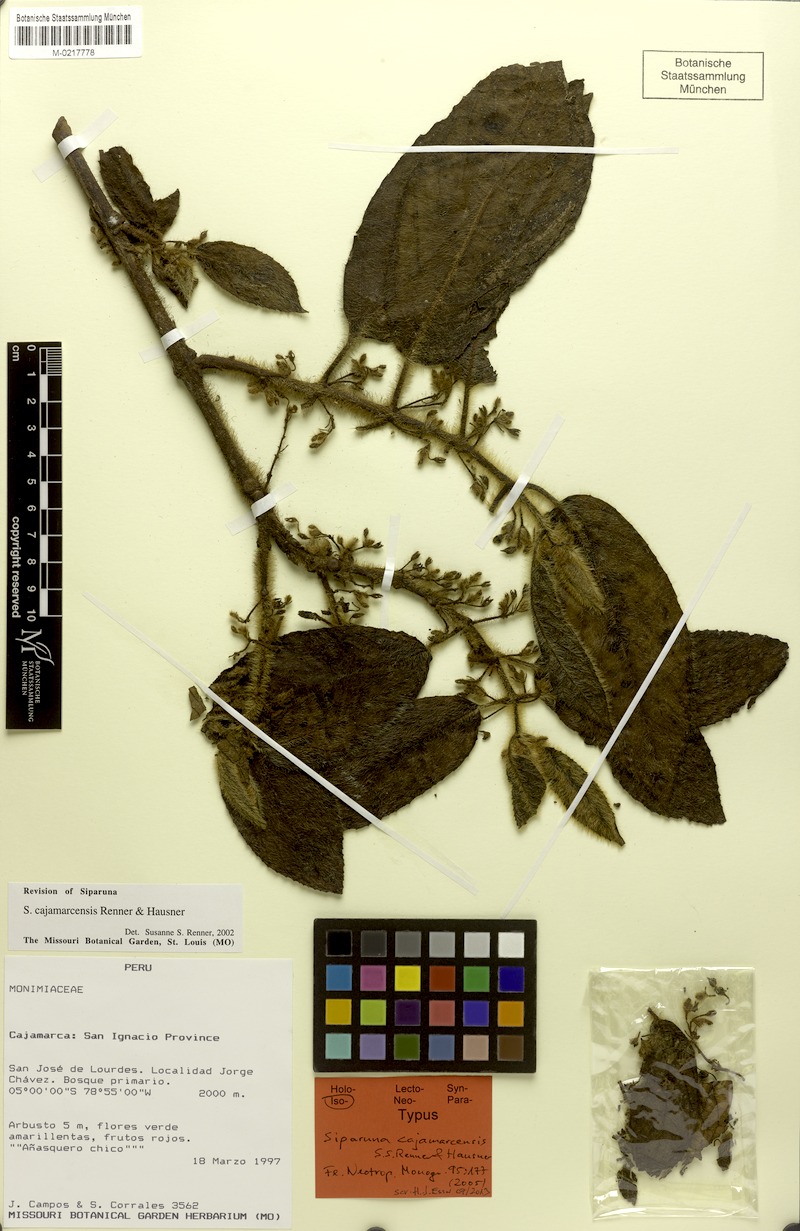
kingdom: Plantae
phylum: Tracheophyta
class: Magnoliopsida
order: Laurales
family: Siparunaceae
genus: Siparuna
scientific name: Siparuna cajamarcensis
